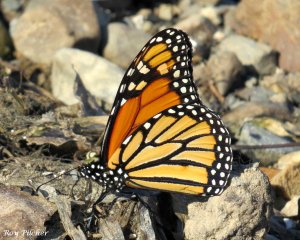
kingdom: Animalia
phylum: Arthropoda
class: Insecta
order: Lepidoptera
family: Nymphalidae
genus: Danaus
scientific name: Danaus plexippus
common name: Monarch
